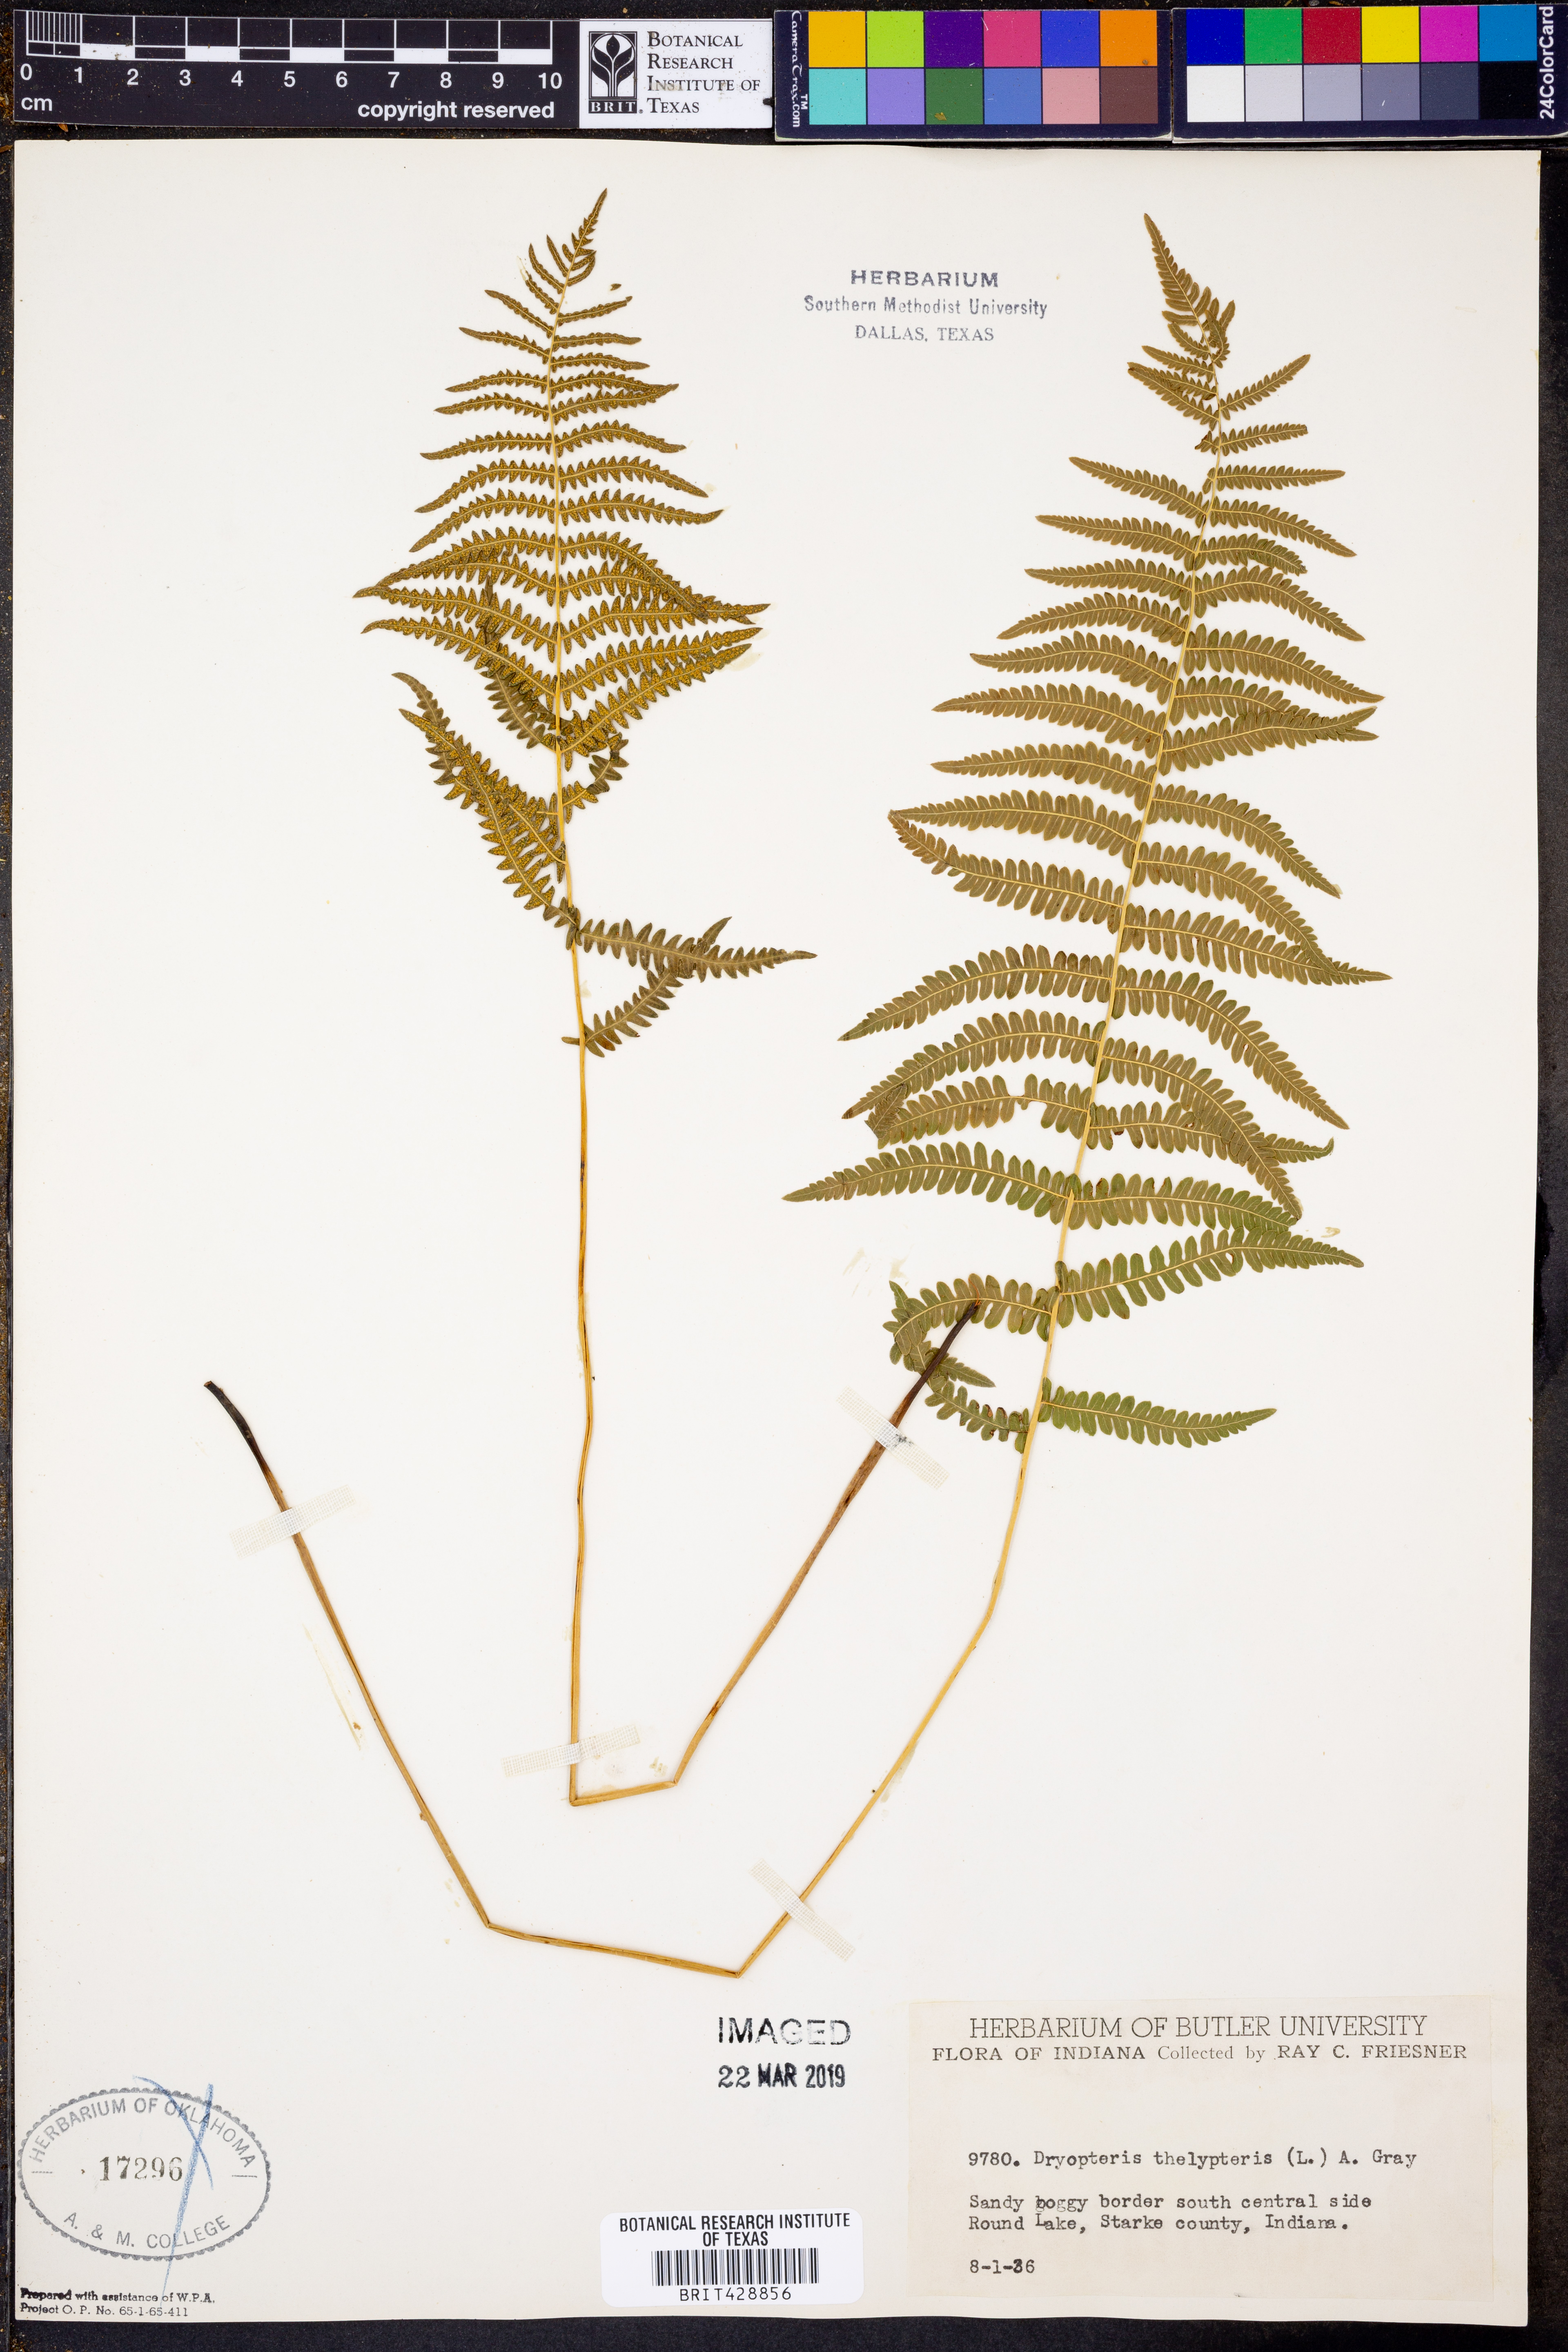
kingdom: Plantae
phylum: Tracheophyta
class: Polypodiopsida
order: Polypodiales
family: Thelypteridaceae
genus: Thelypteris
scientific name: Thelypteris palustris
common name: Marsh fern
